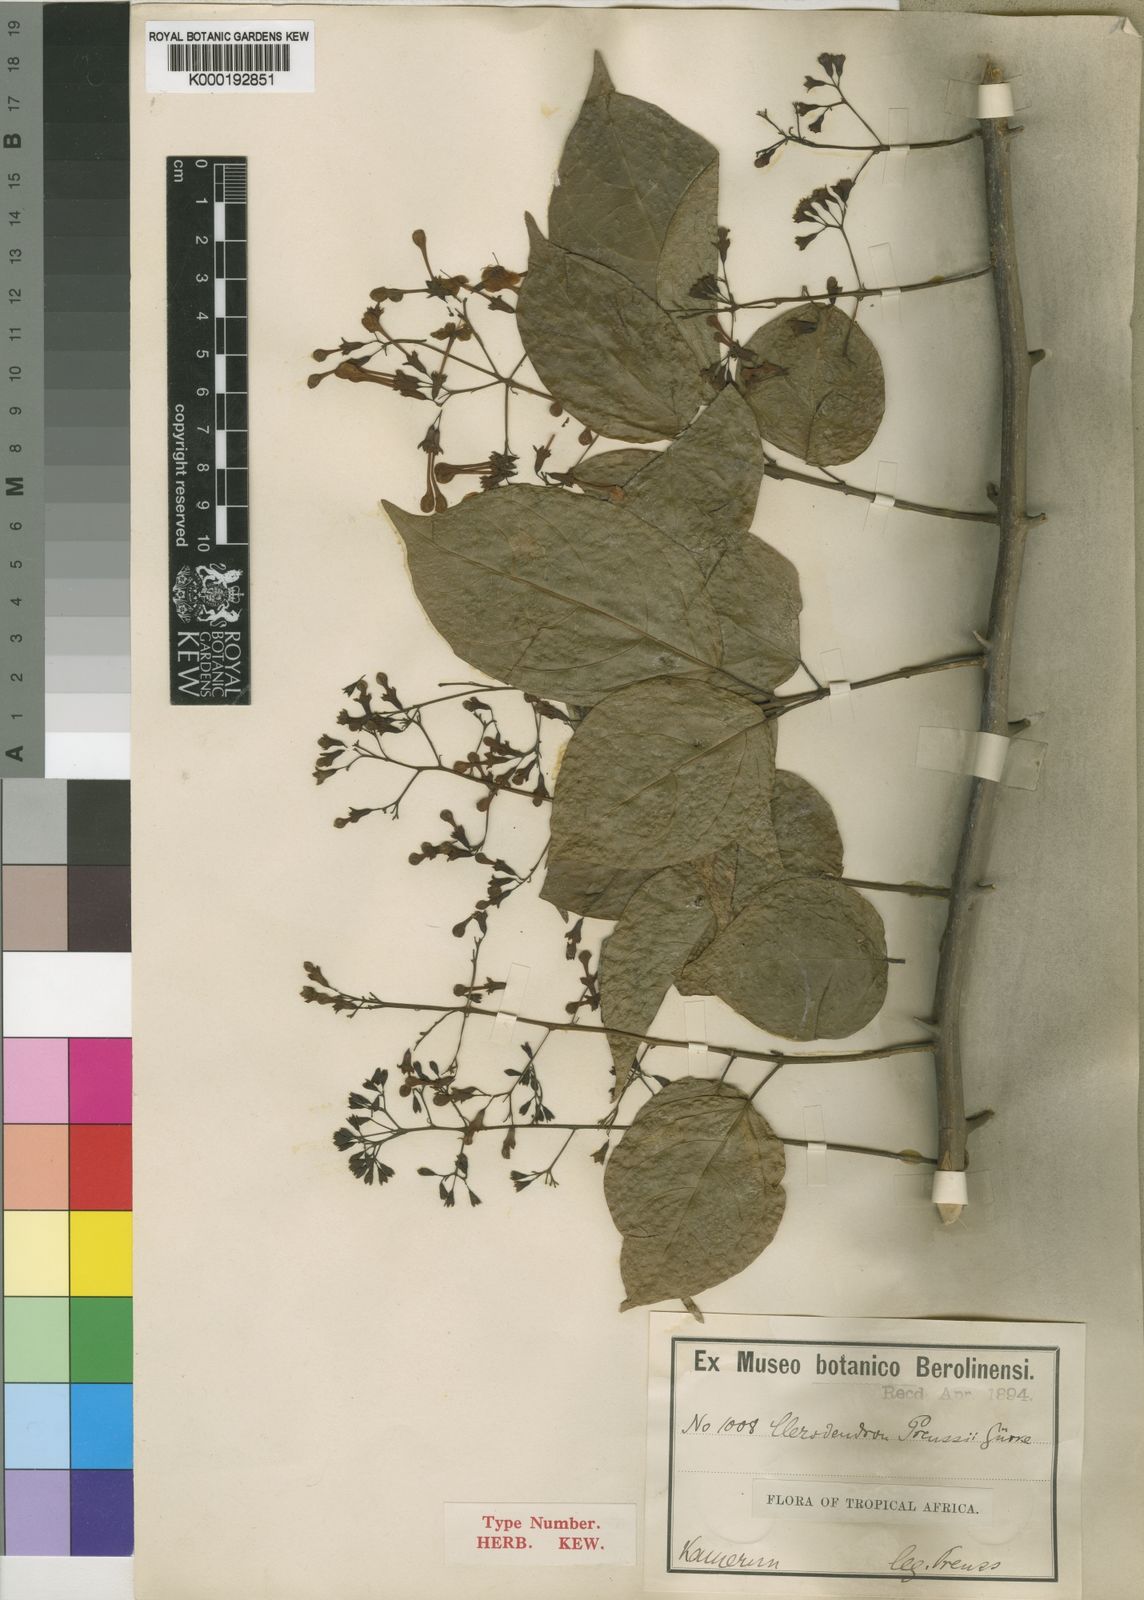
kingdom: Plantae
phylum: Tracheophyta
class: Magnoliopsida
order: Lamiales
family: Lamiaceae
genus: Clerodendrum
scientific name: Clerodendrum
